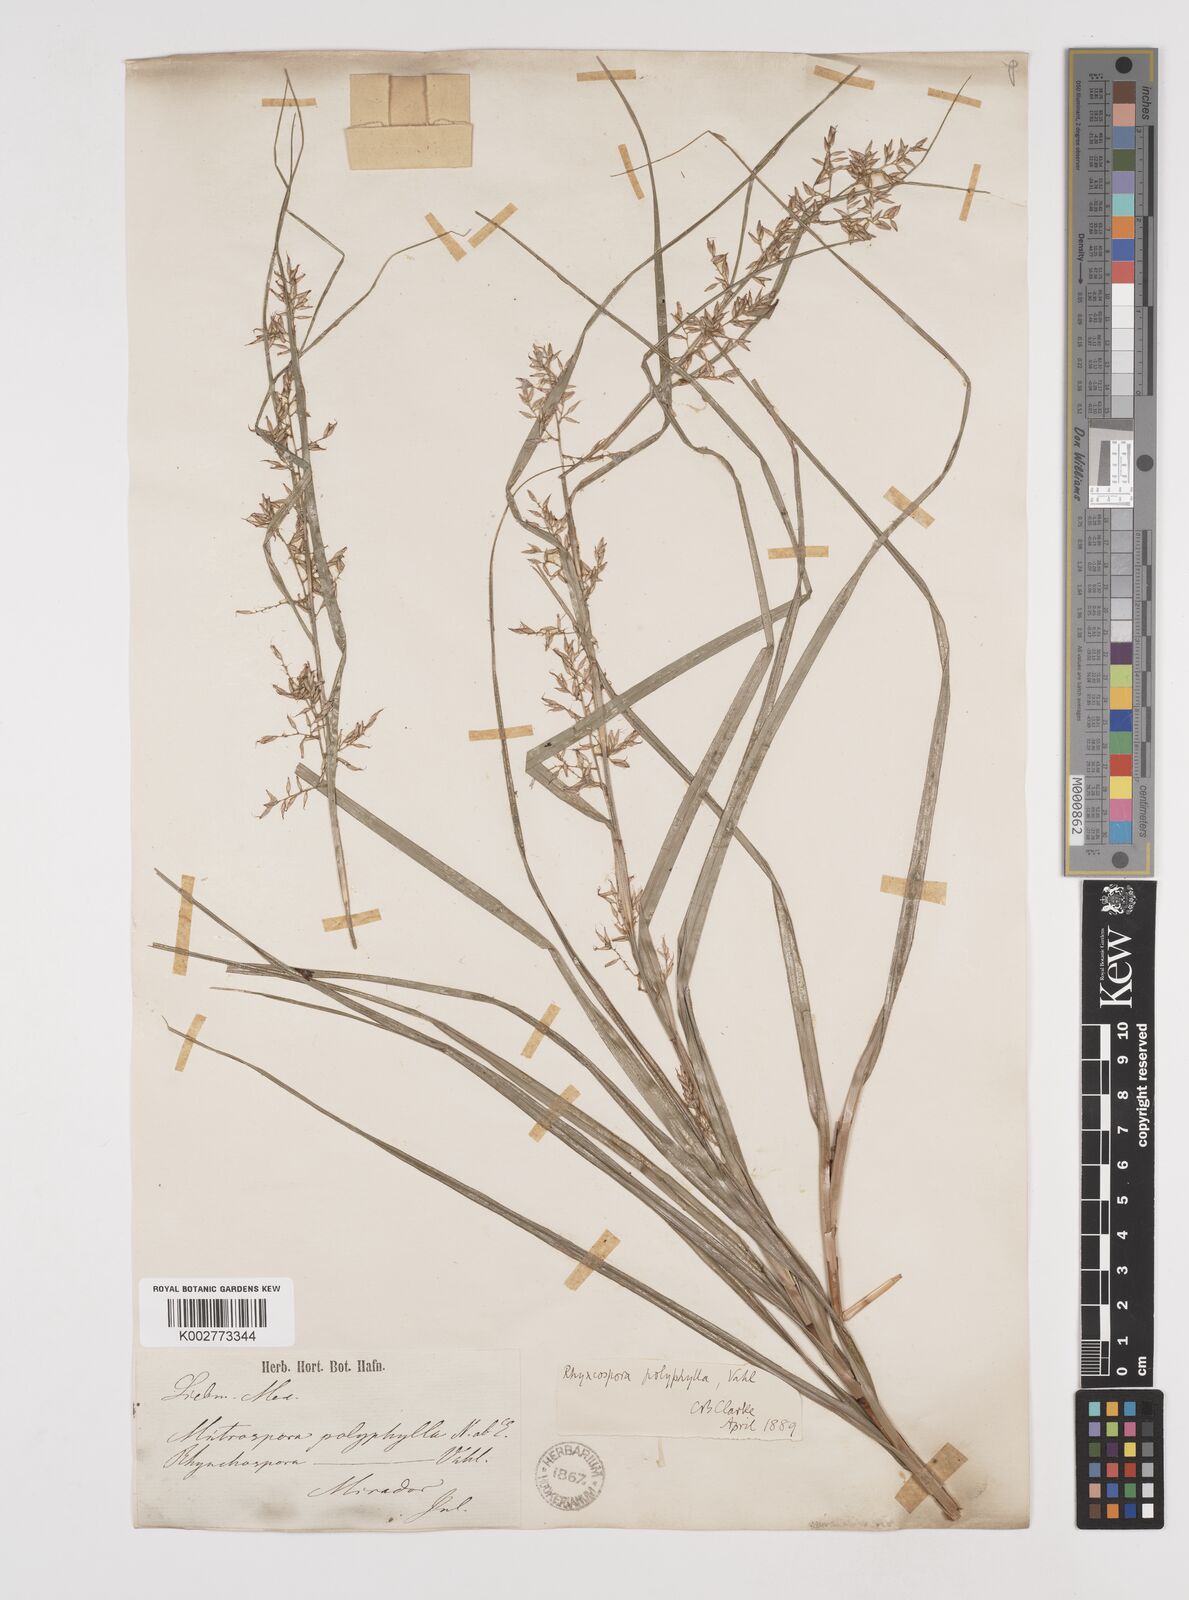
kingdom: Plantae
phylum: Tracheophyta
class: Liliopsida
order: Poales
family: Cyperaceae
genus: Rhynchospora
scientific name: Rhynchospora polyphylla
